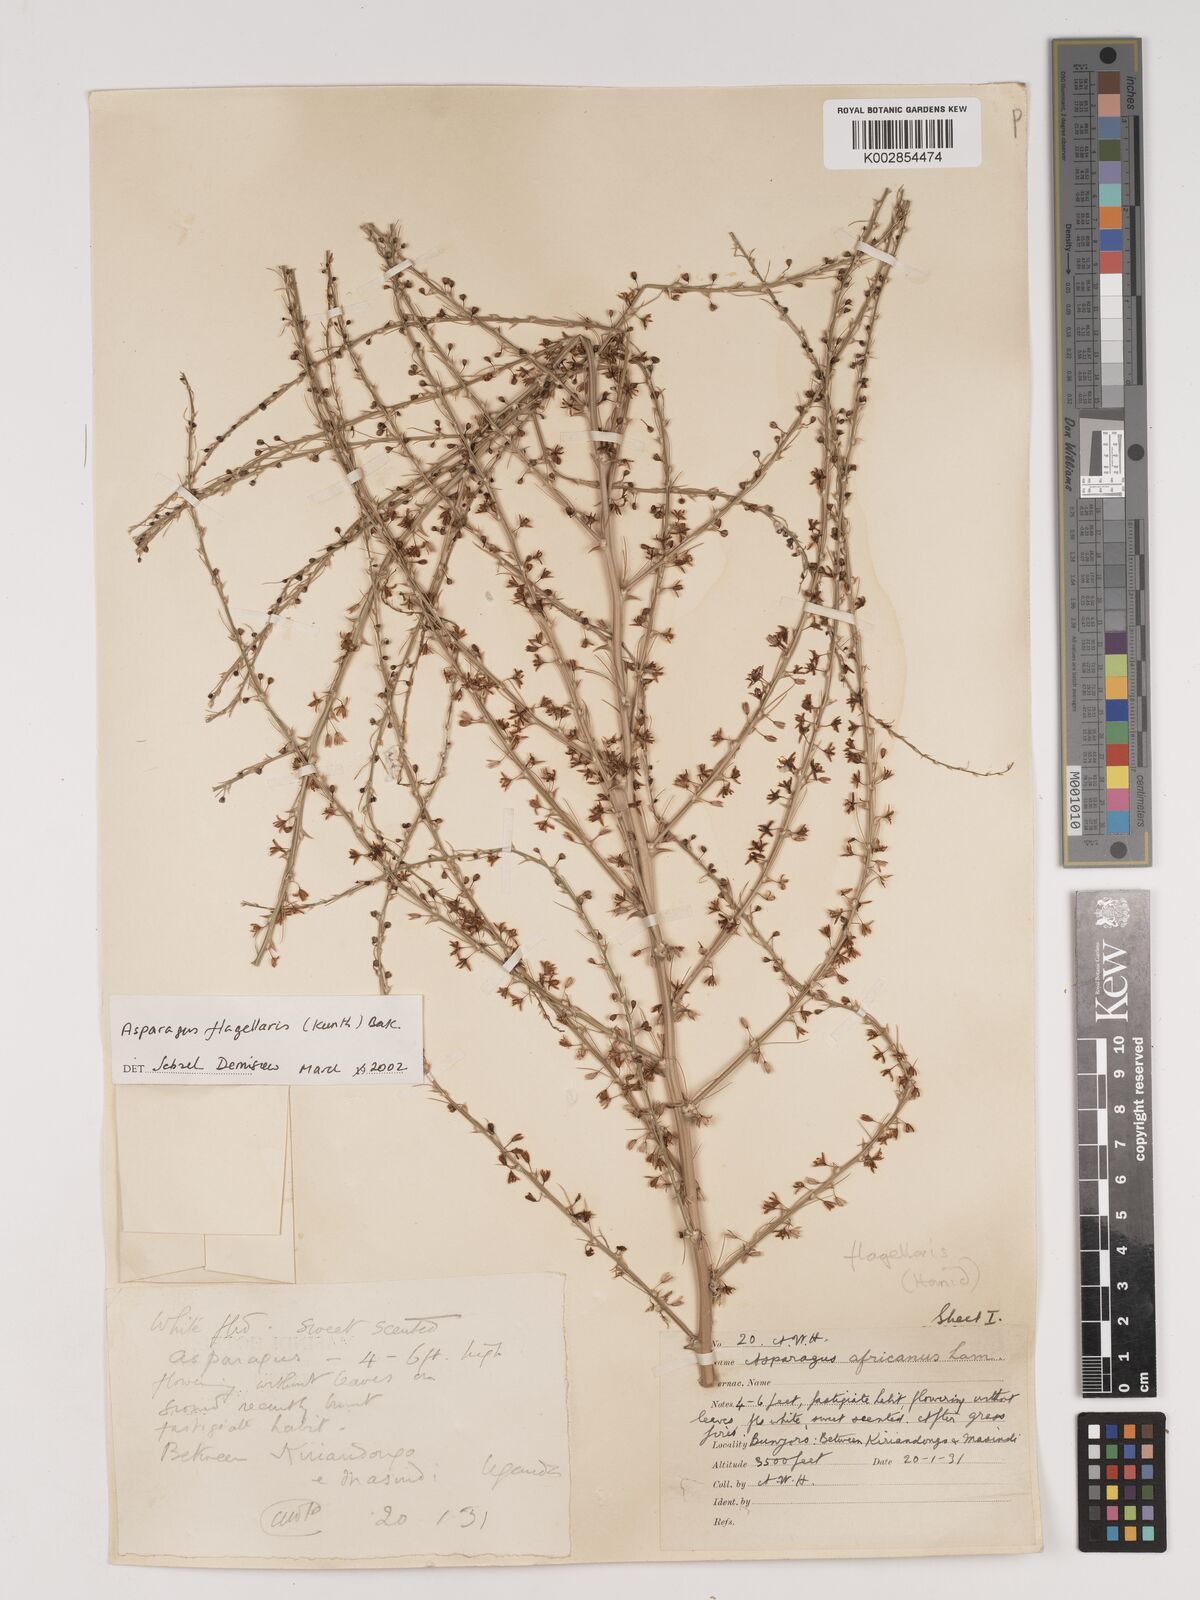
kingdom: Plantae
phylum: Tracheophyta
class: Liliopsida
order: Asparagales
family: Asparagaceae
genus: Asparagus
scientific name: Asparagus flagellaris
